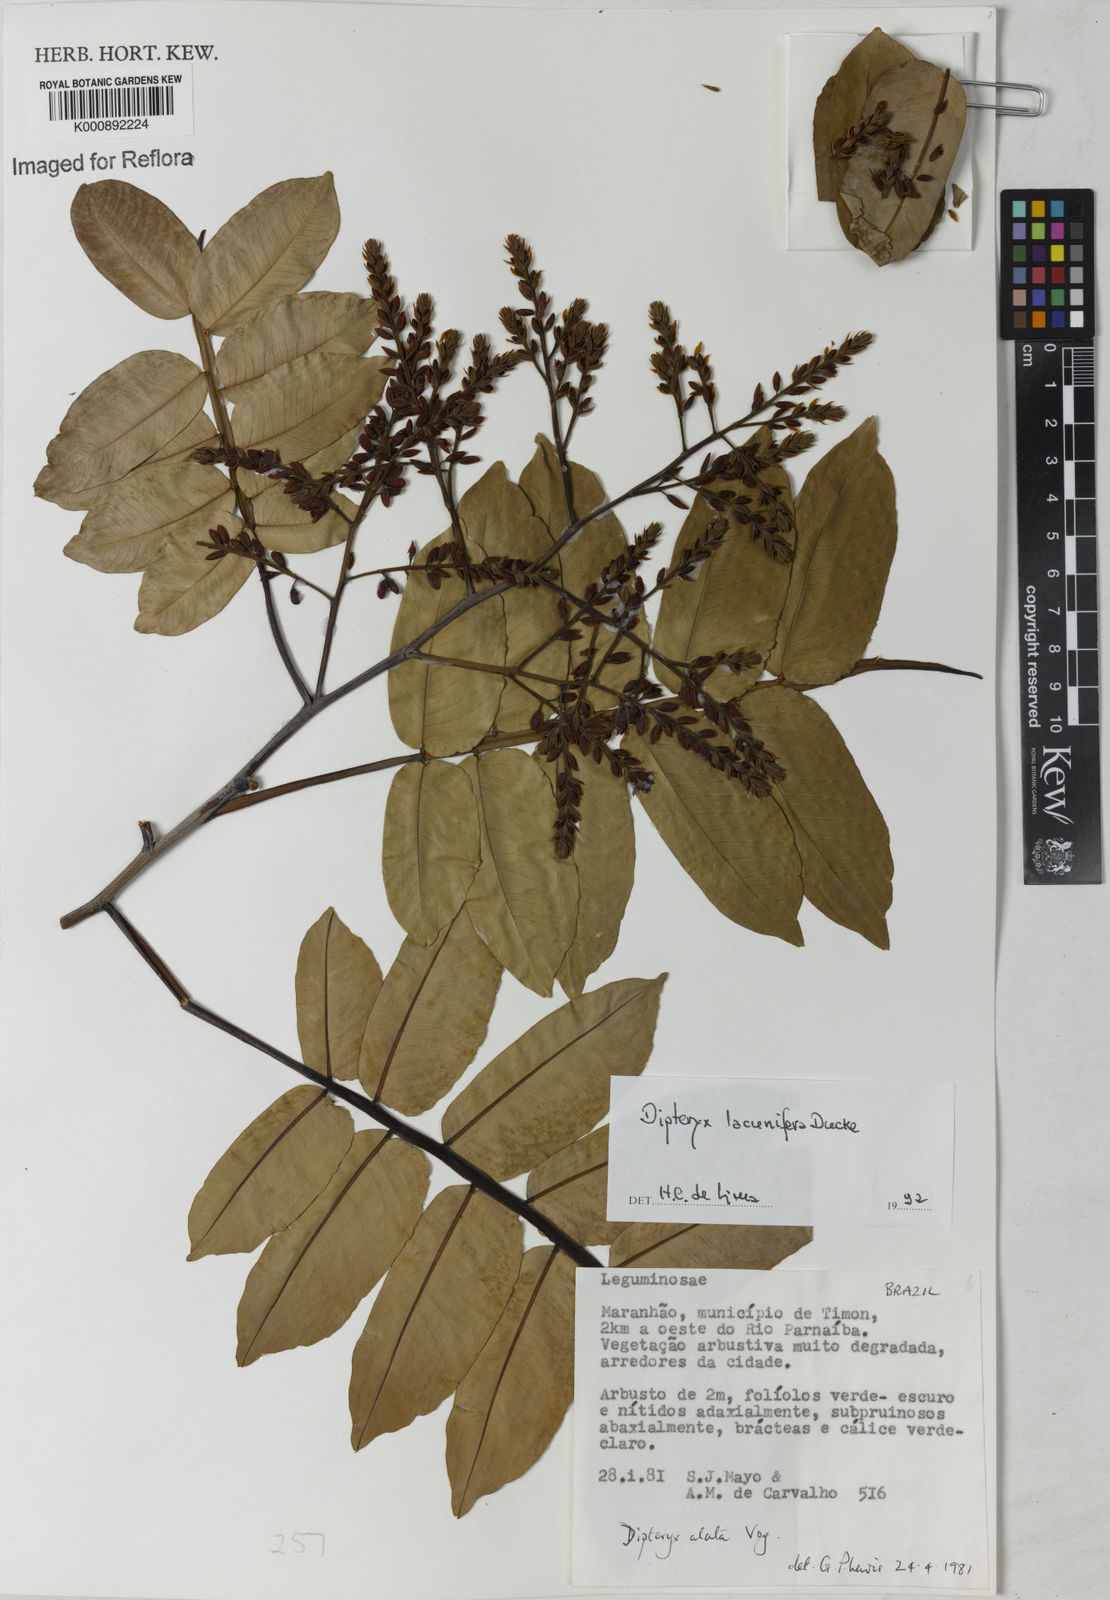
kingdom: Plantae
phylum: Tracheophyta
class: Magnoliopsida
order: Fabales
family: Fabaceae
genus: Dipteryx
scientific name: Dipteryx lacunifera
